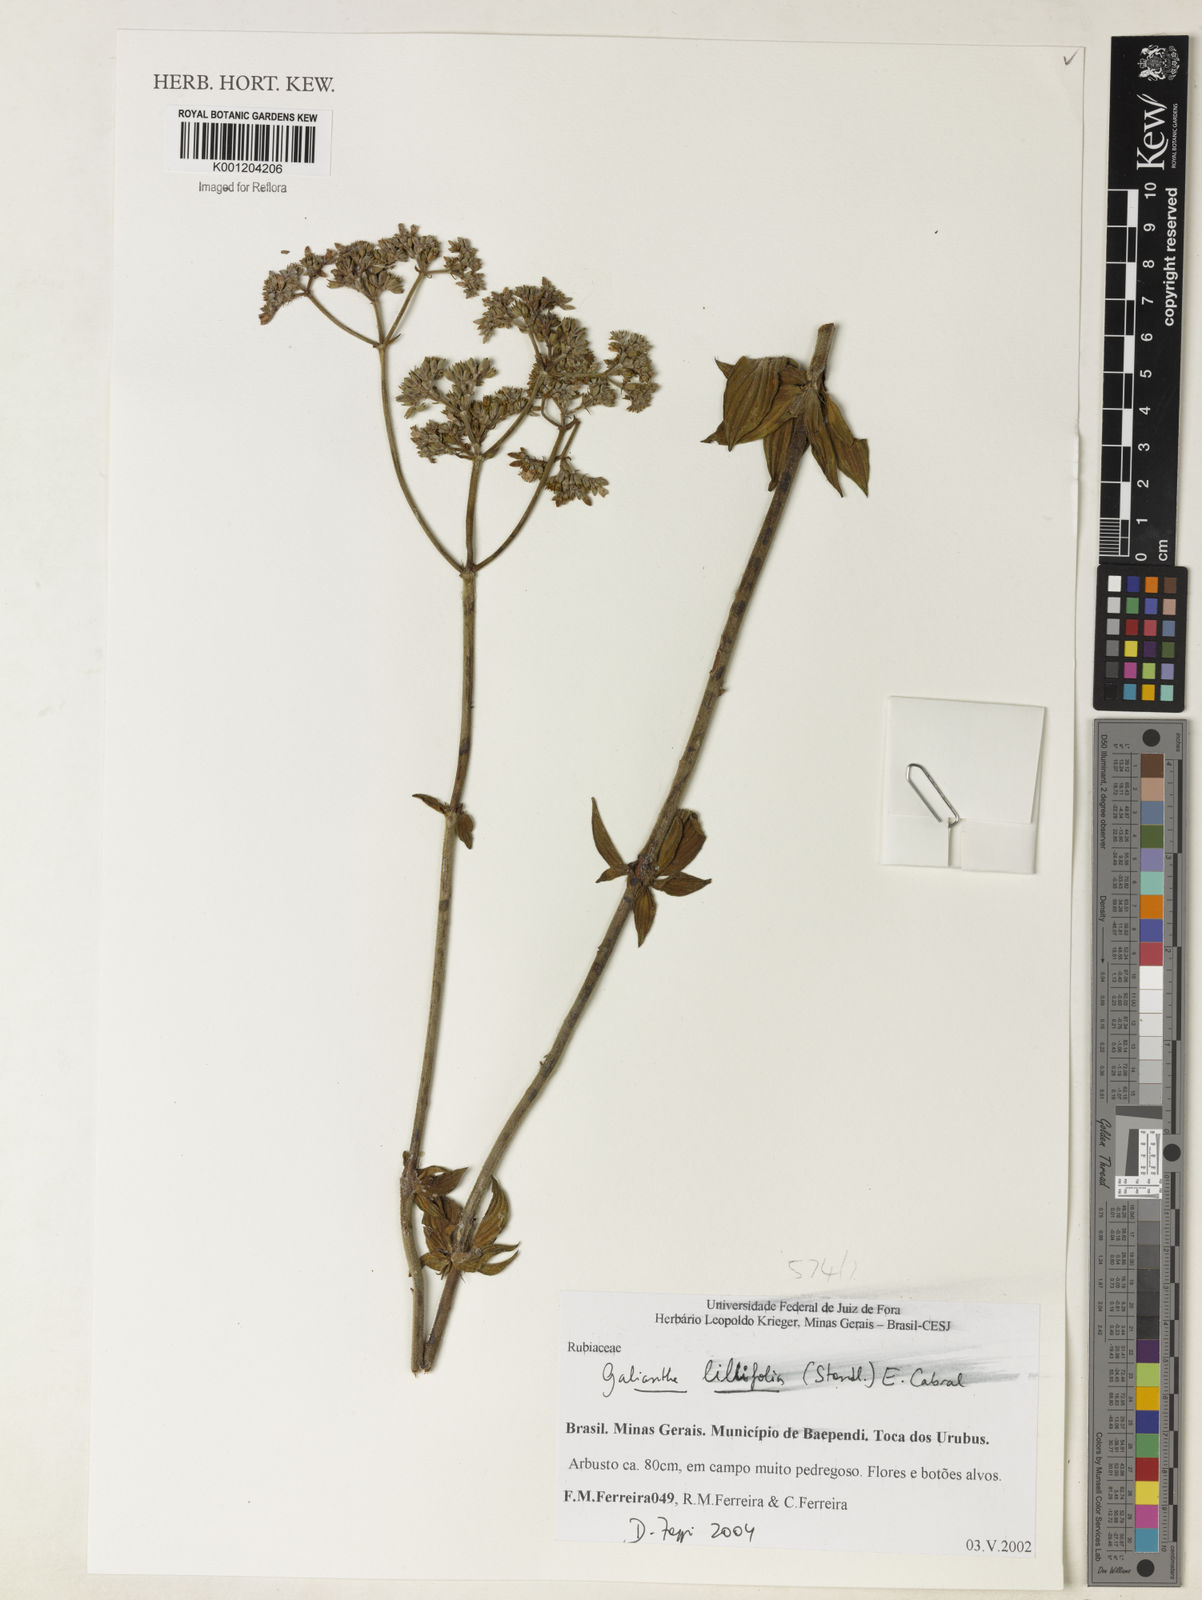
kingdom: Plantae
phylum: Tracheophyta
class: Magnoliopsida
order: Gentianales
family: Rubiaceae
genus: Galianthe
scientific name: Galianthe liliifolia
